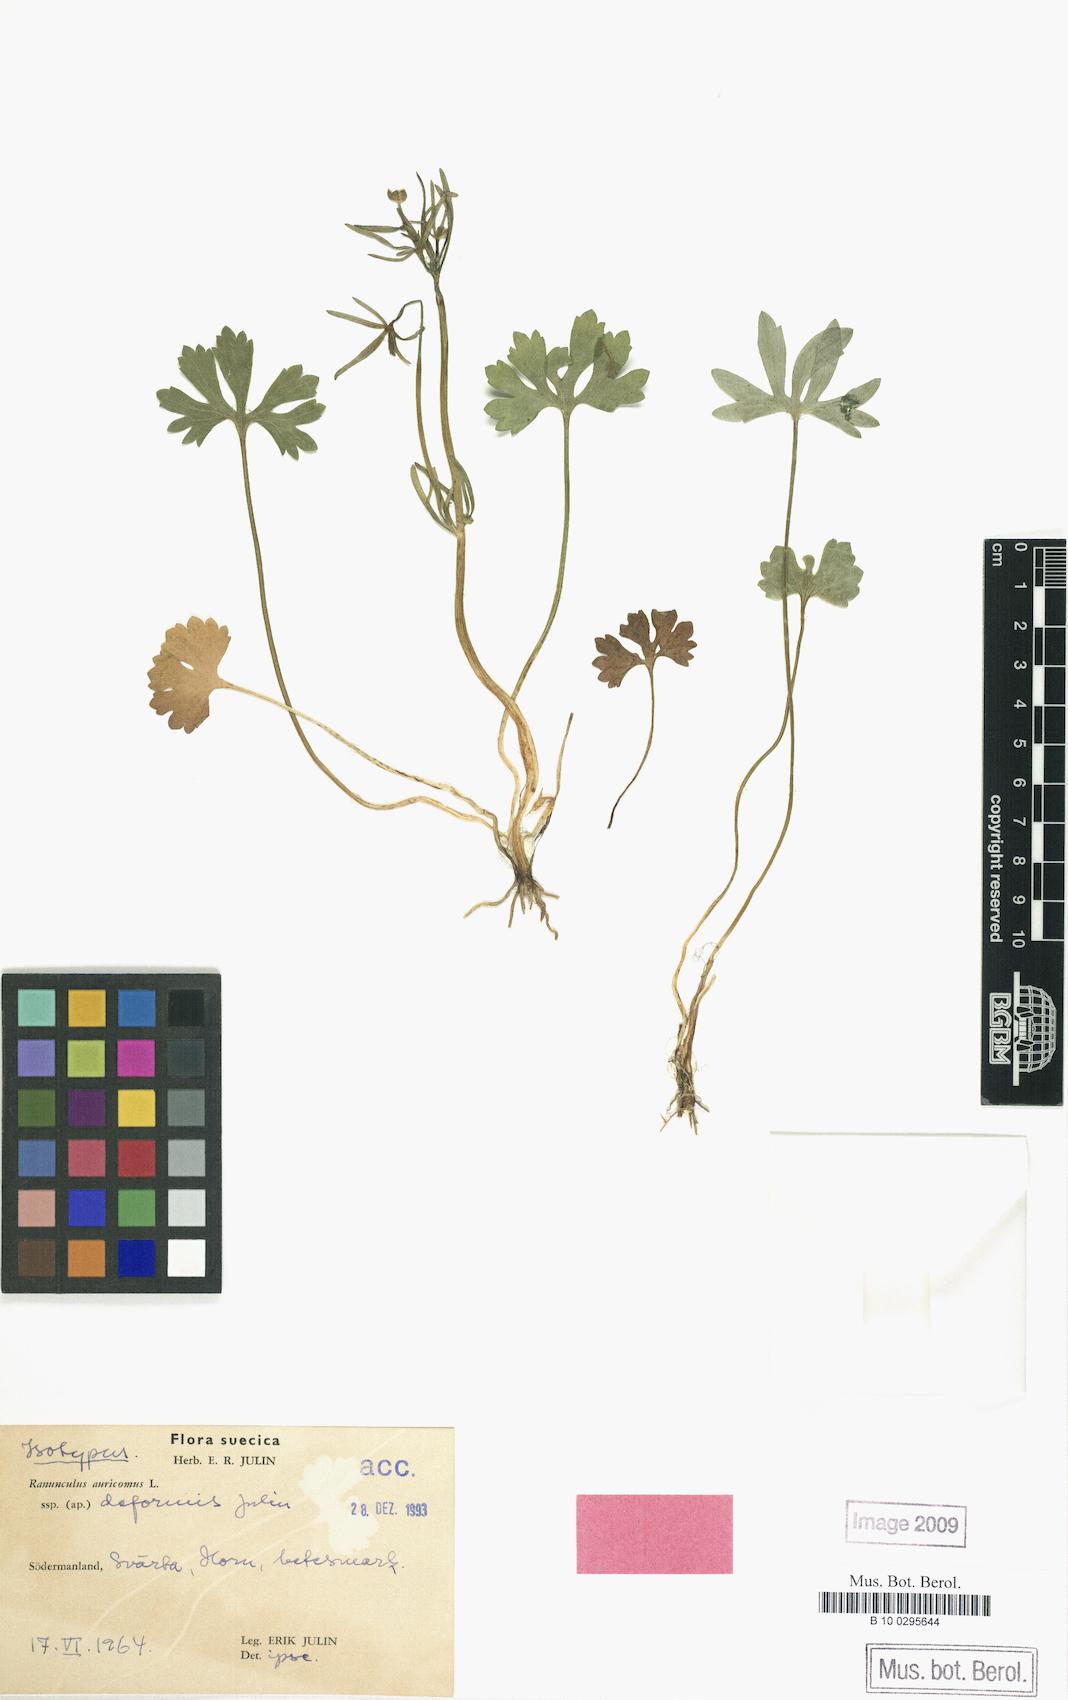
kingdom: Plantae
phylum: Tracheophyta
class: Magnoliopsida
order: Ranunculales
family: Ranunculaceae
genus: Ranunculus
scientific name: Ranunculus deformis
